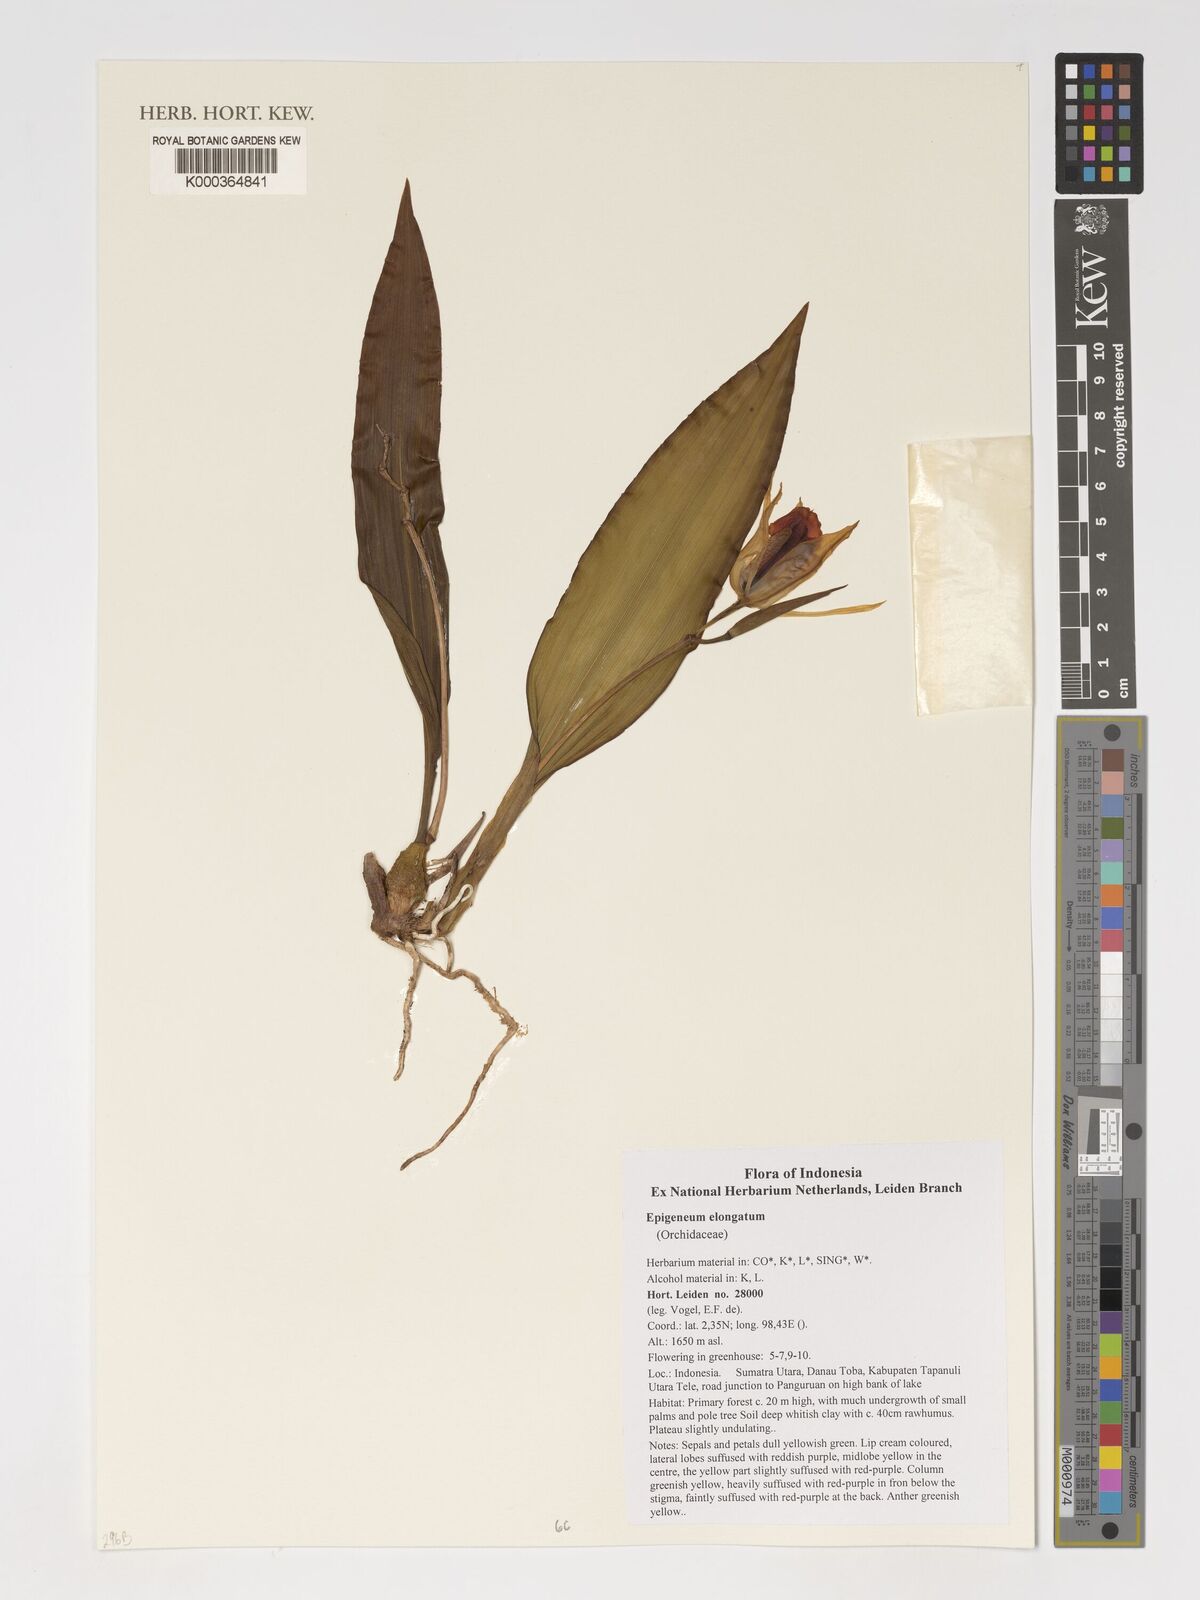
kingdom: Plantae
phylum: Tracheophyta
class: Liliopsida
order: Asparagales
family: Orchidaceae
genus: Dendrobium
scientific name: Dendrobium elongatum
